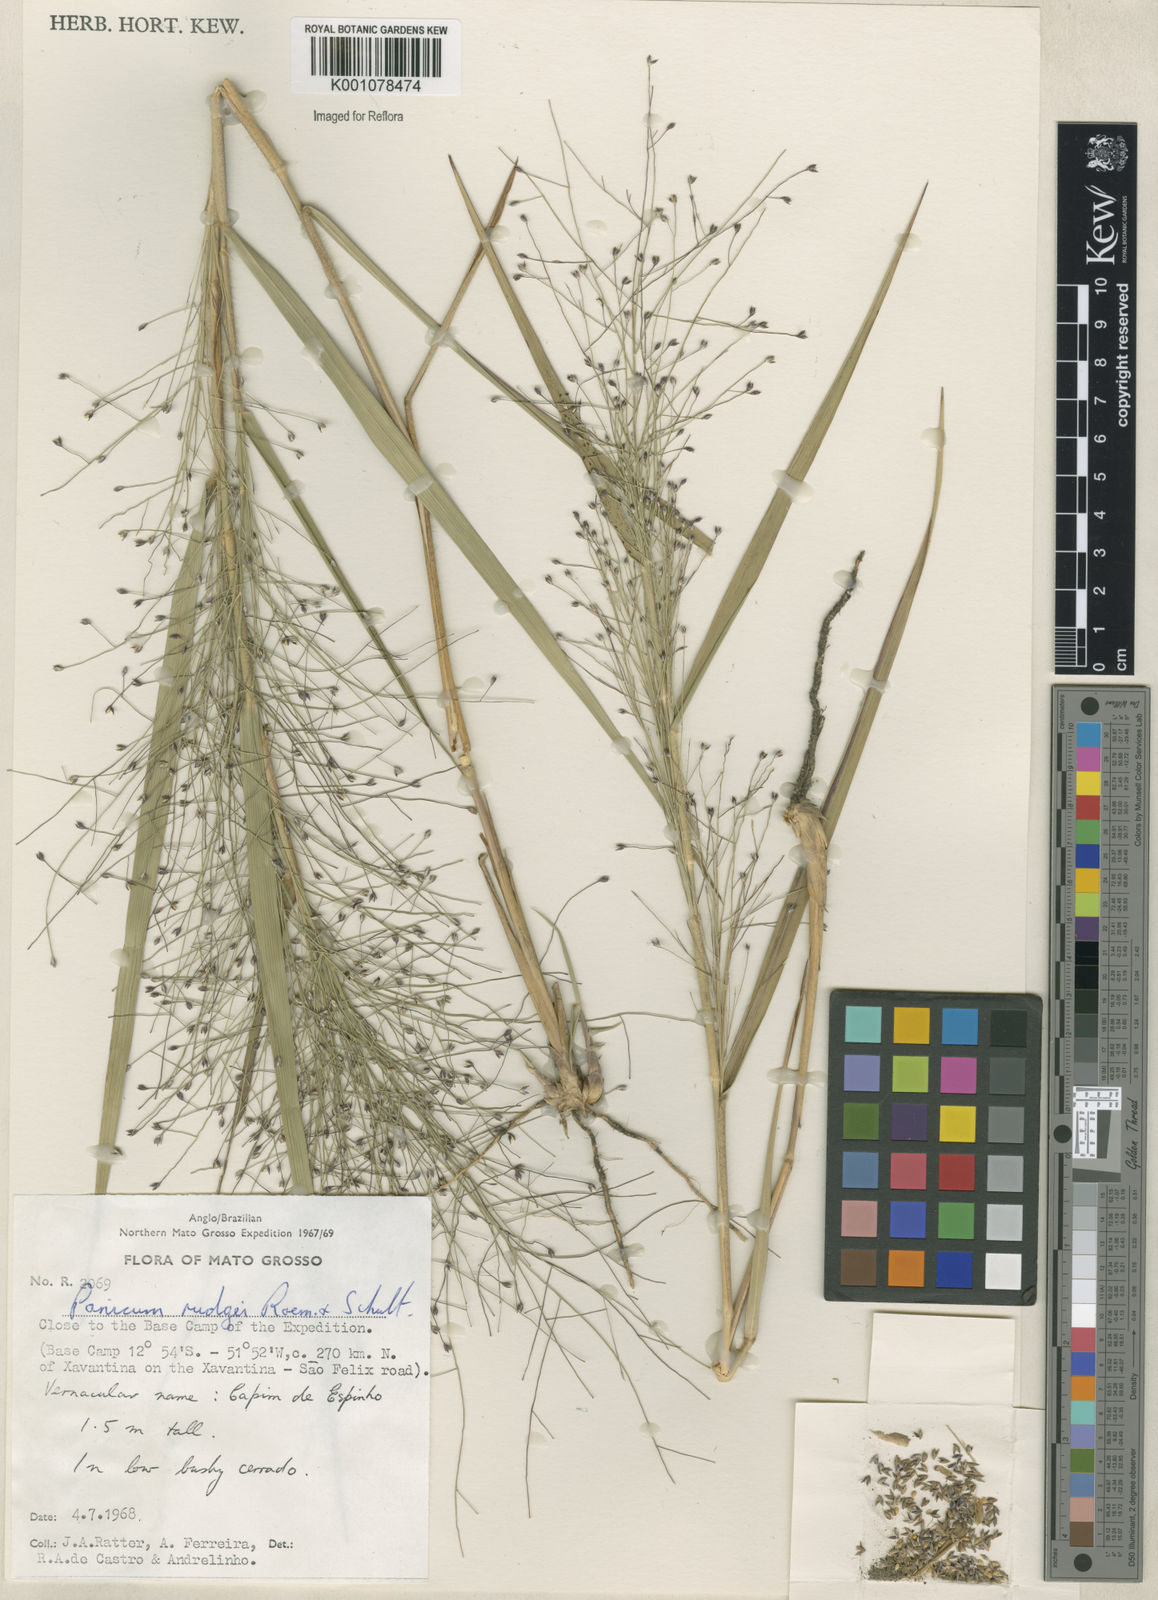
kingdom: Plantae
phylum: Tracheophyta
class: Liliopsida
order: Poales
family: Poaceae
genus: Panicum
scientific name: Panicum rudgei
